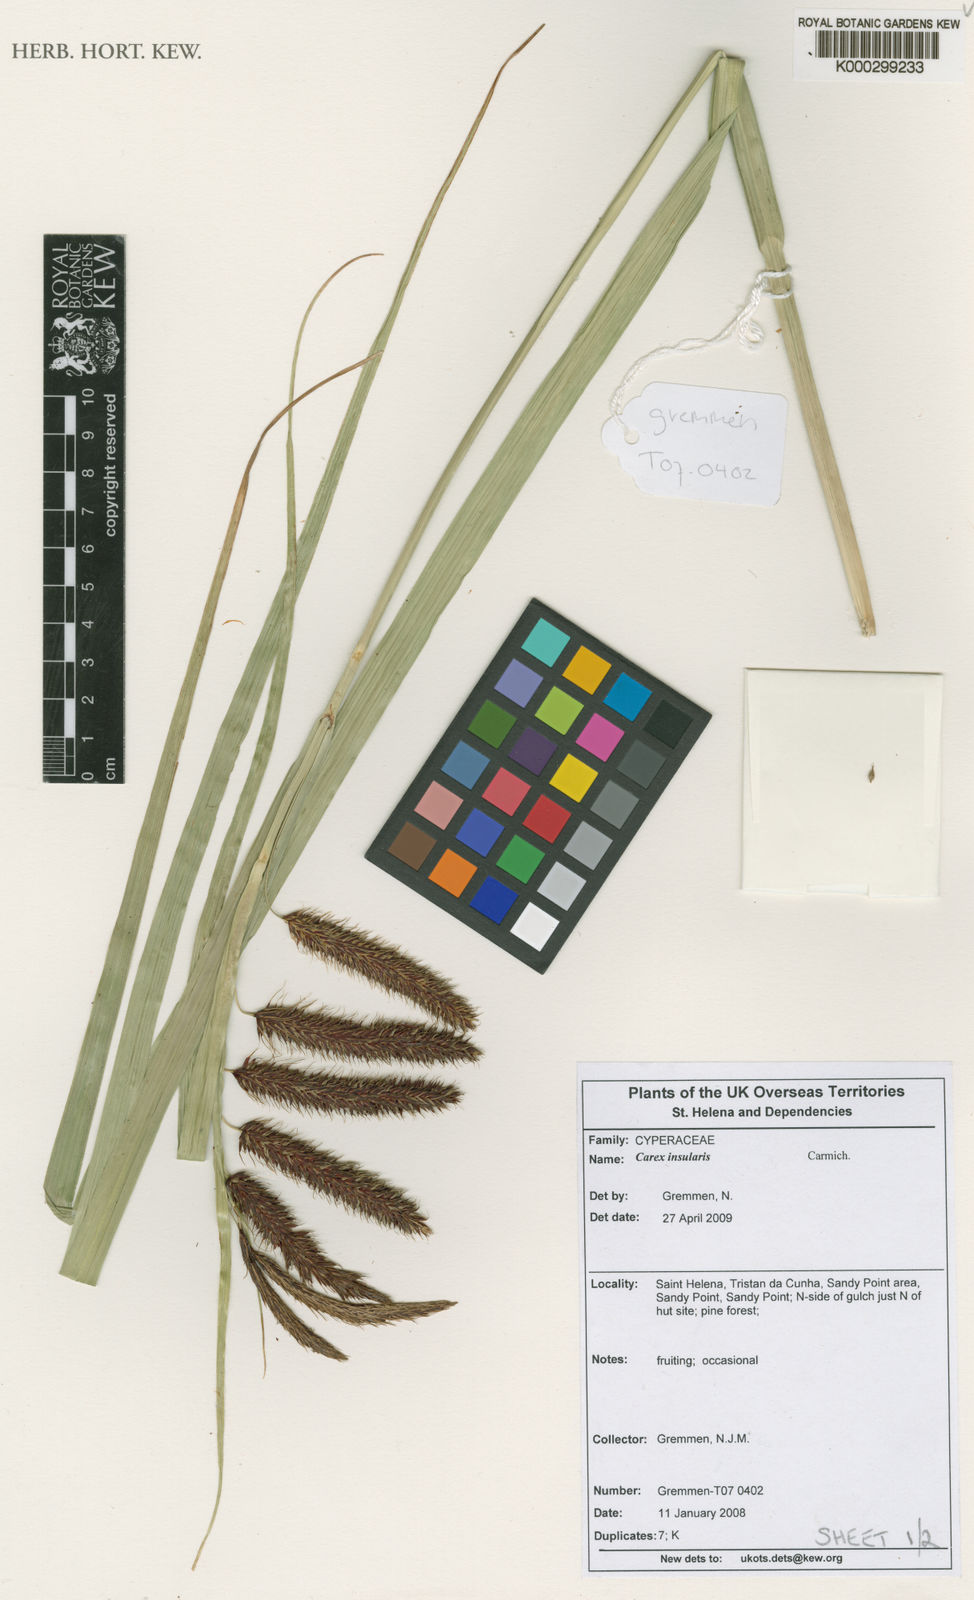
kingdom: Plantae
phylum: Tracheophyta
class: Liliopsida
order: Poales
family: Cyperaceae
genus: Carex
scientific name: Carex insularis
